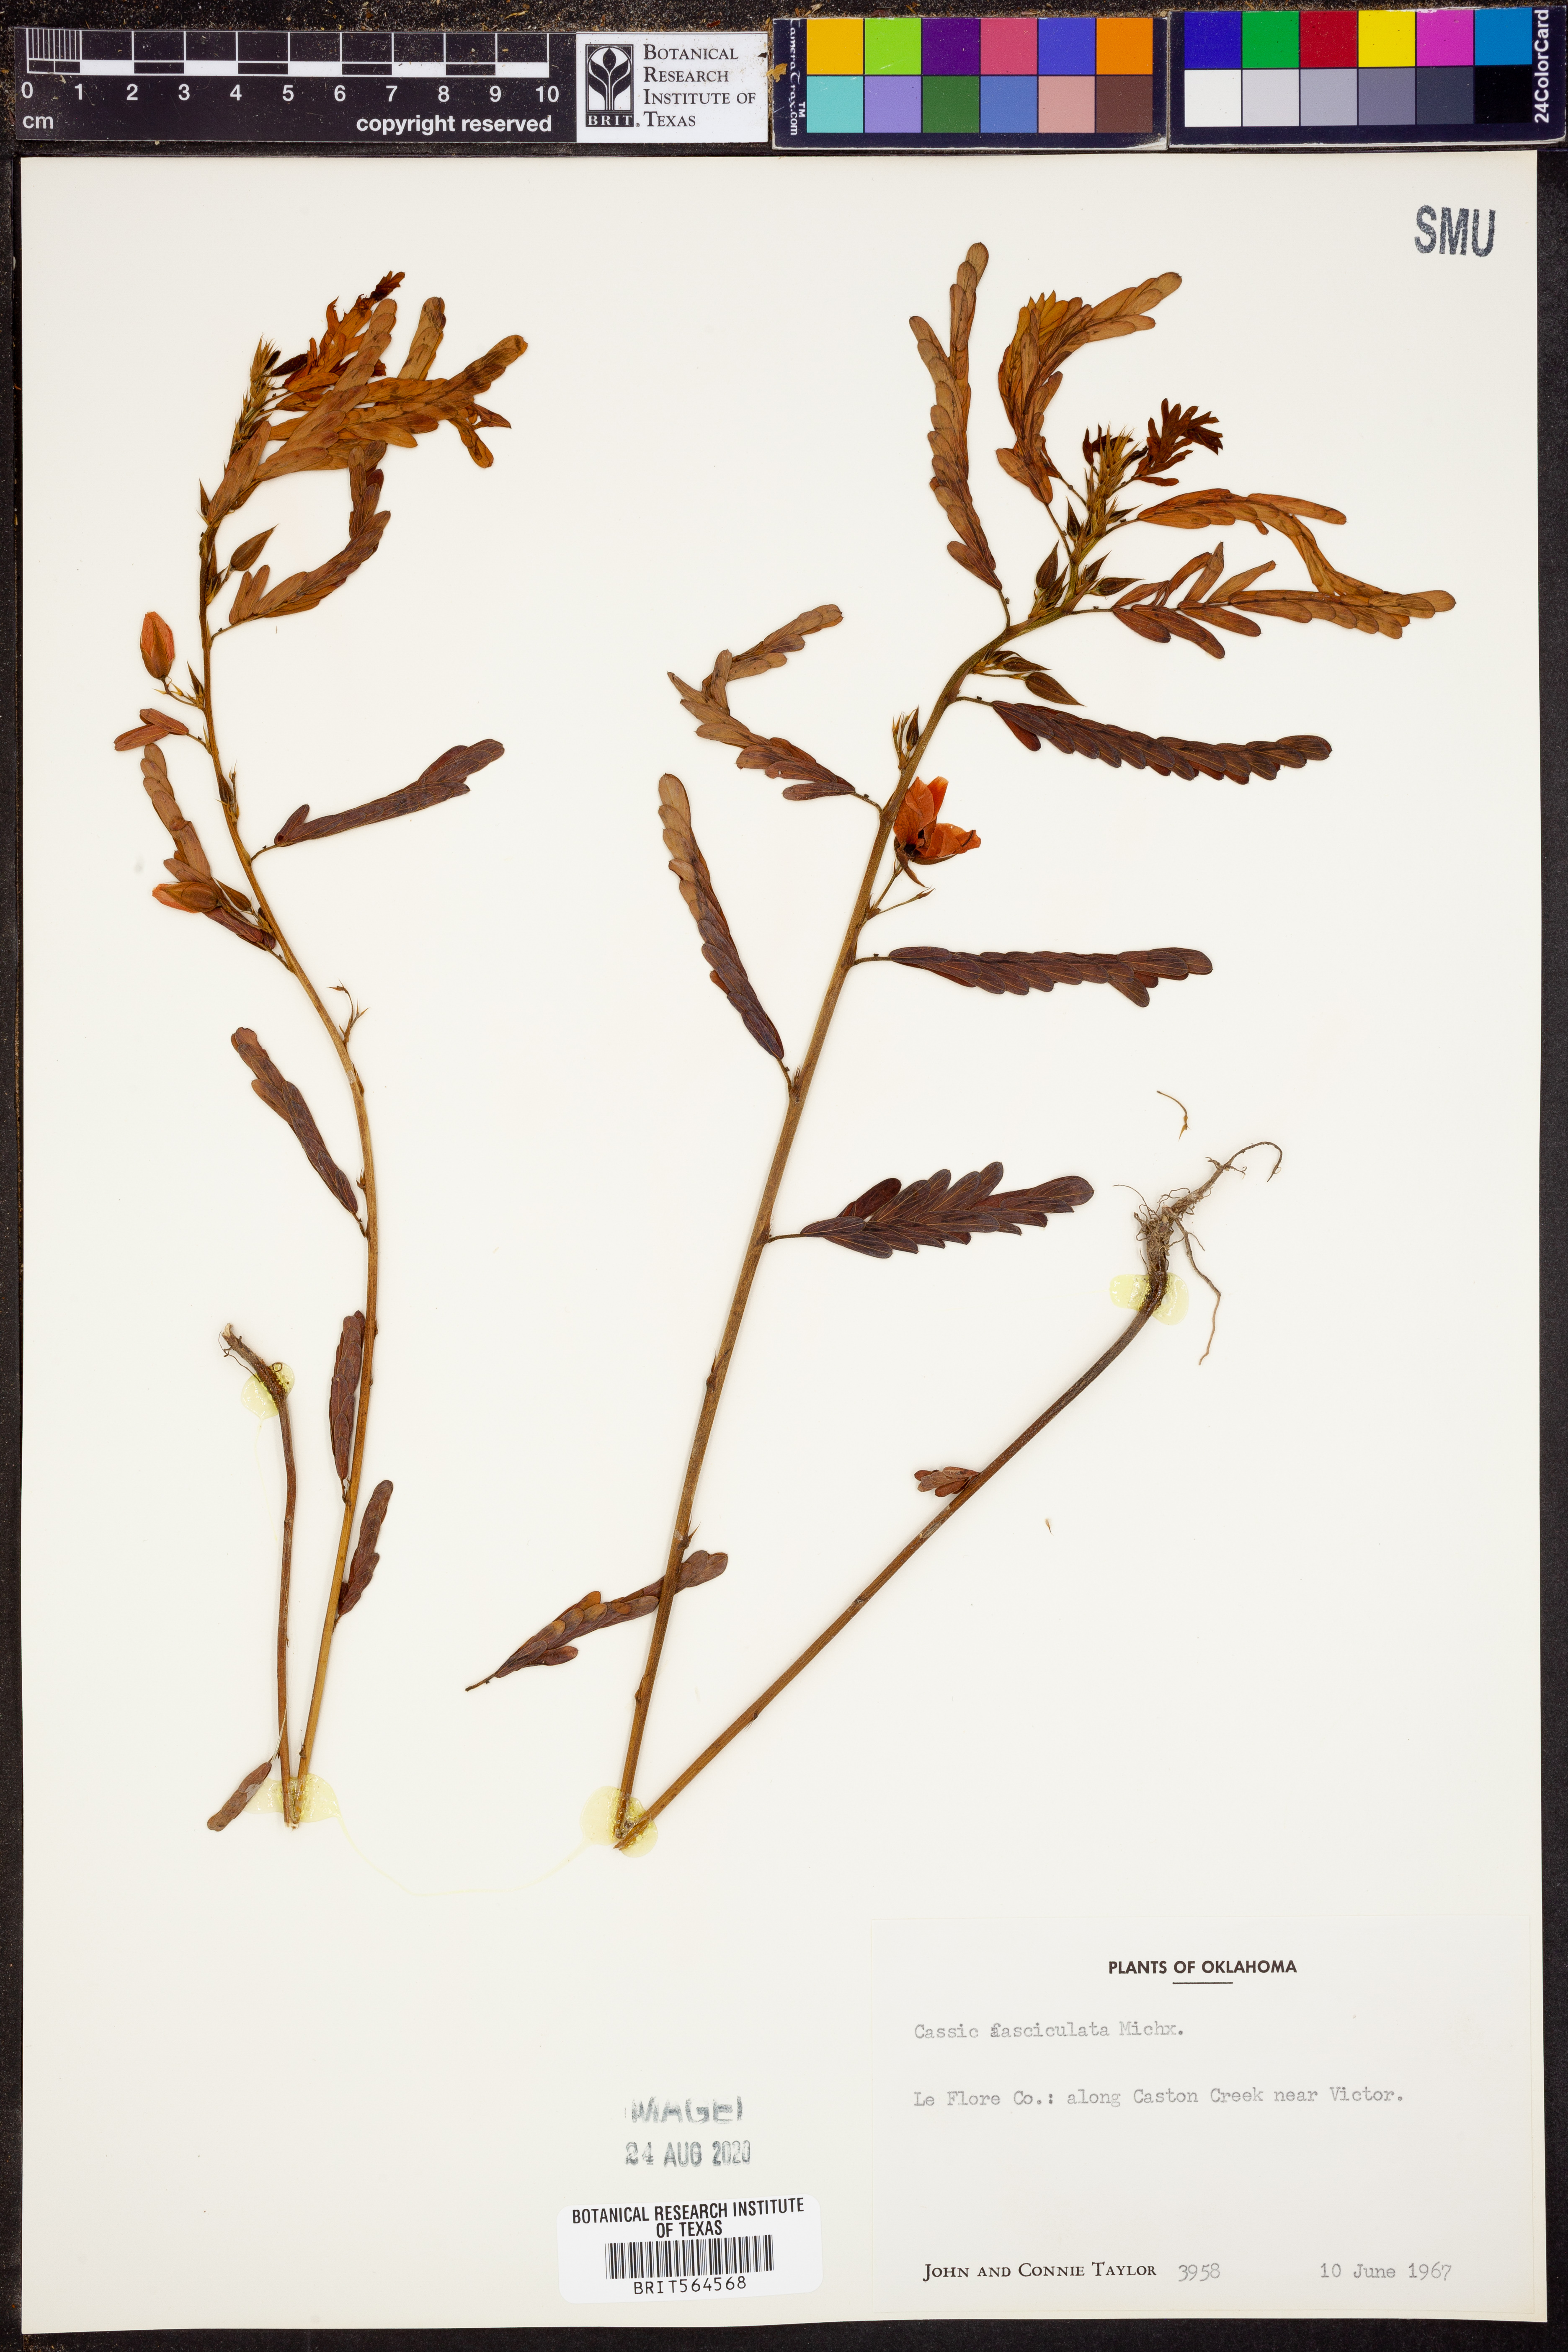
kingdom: Plantae
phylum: Tracheophyta
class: Magnoliopsida
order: Fabales
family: Fabaceae
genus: Chamaecrista
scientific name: Chamaecrista fasciculata
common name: Golden cassia
